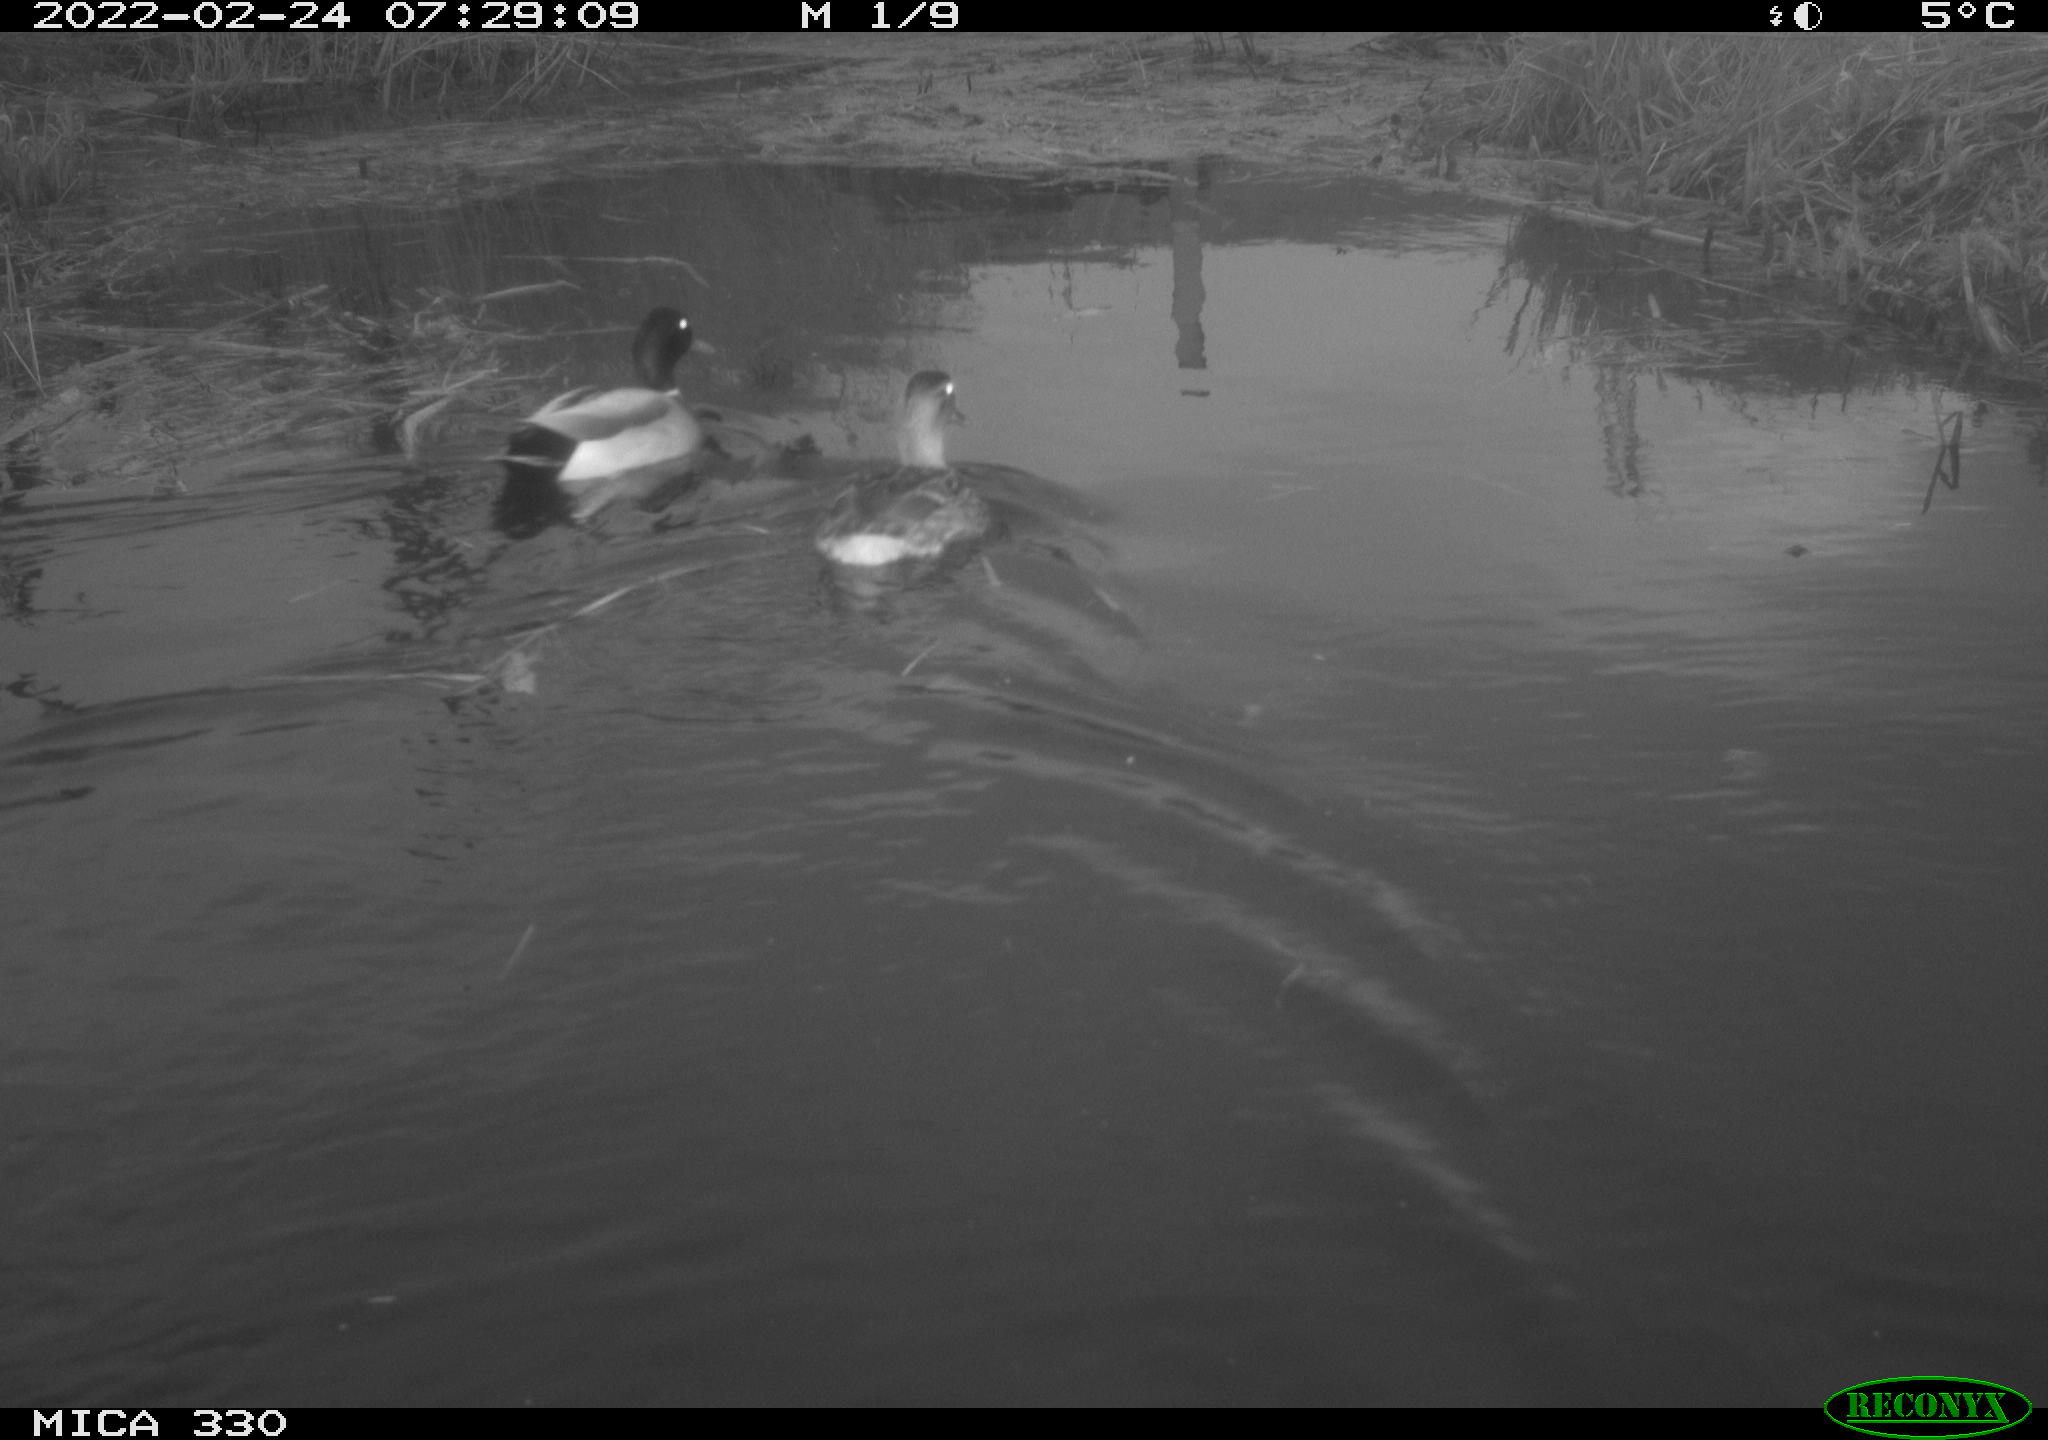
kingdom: Animalia
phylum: Chordata
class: Aves
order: Anseriformes
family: Anatidae
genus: Anas
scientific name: Anas platyrhynchos
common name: Mallard
